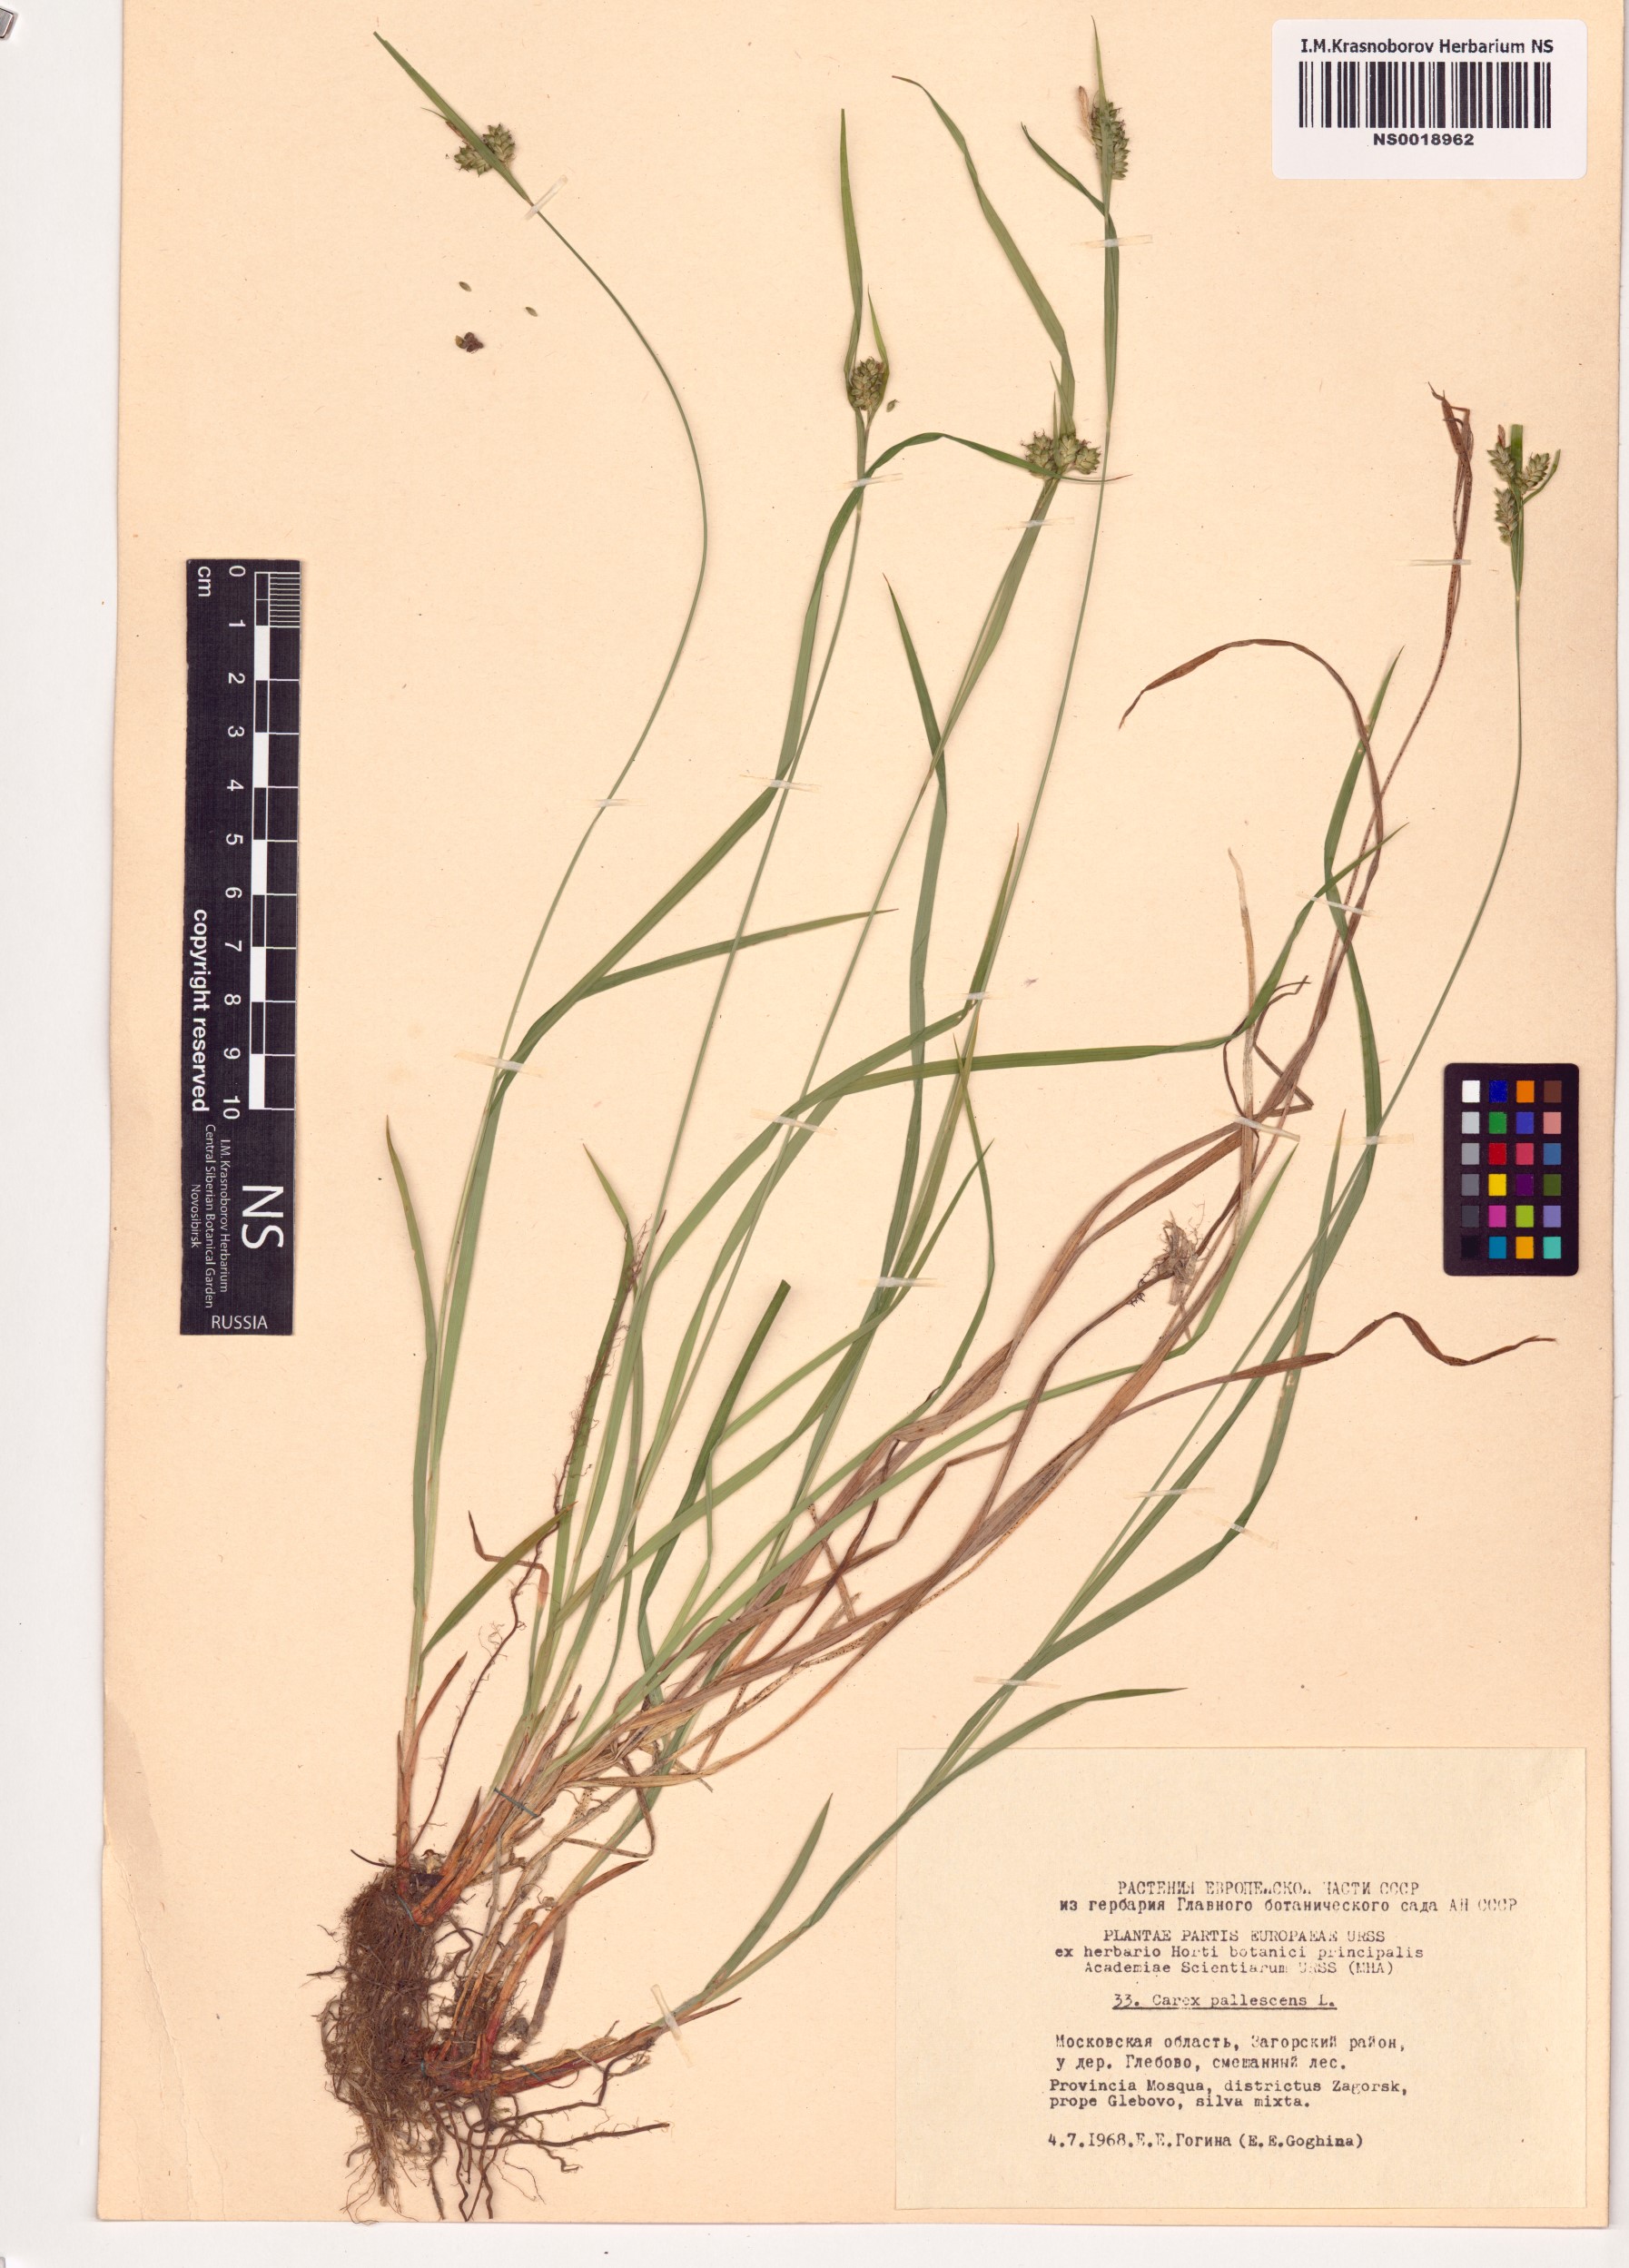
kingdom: Plantae
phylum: Tracheophyta
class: Liliopsida
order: Poales
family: Cyperaceae
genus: Carex
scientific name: Carex pallescens
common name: Pale sedge
